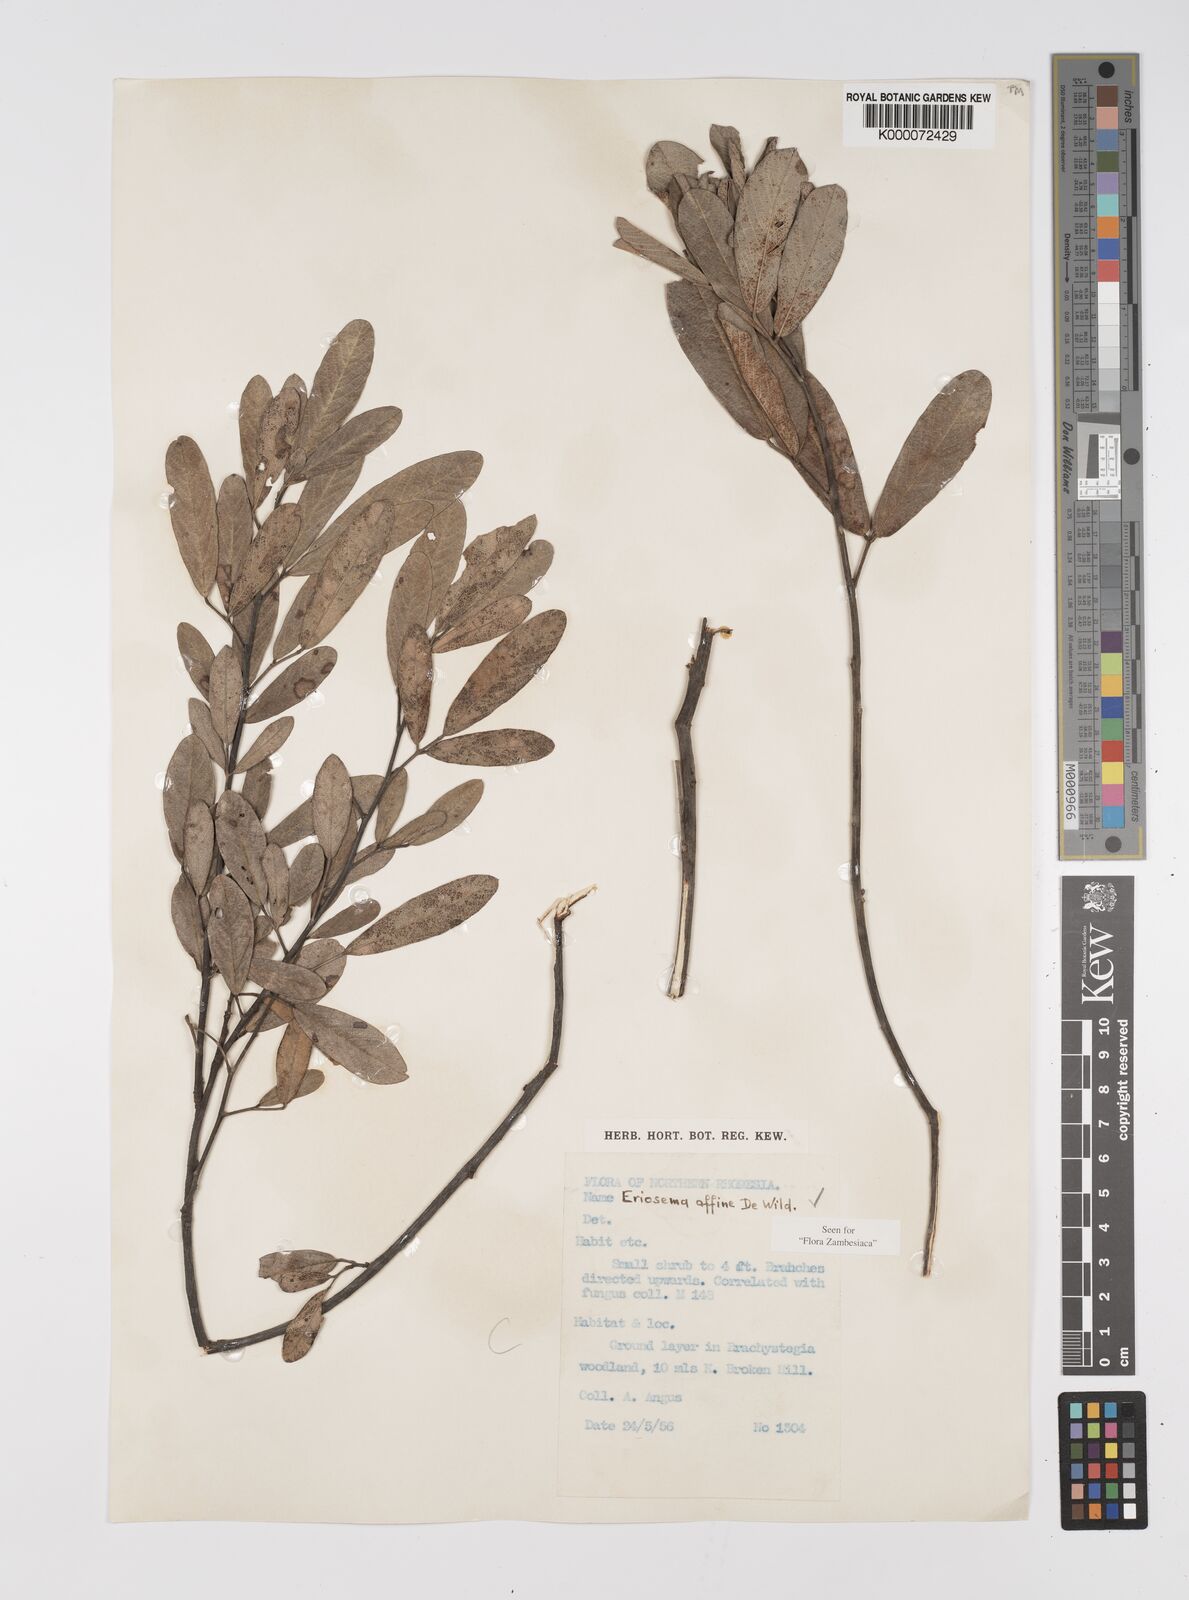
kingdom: Plantae
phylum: Tracheophyta
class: Magnoliopsida
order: Fabales
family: Fabaceae
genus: Eriosema
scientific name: Eriosema affine
